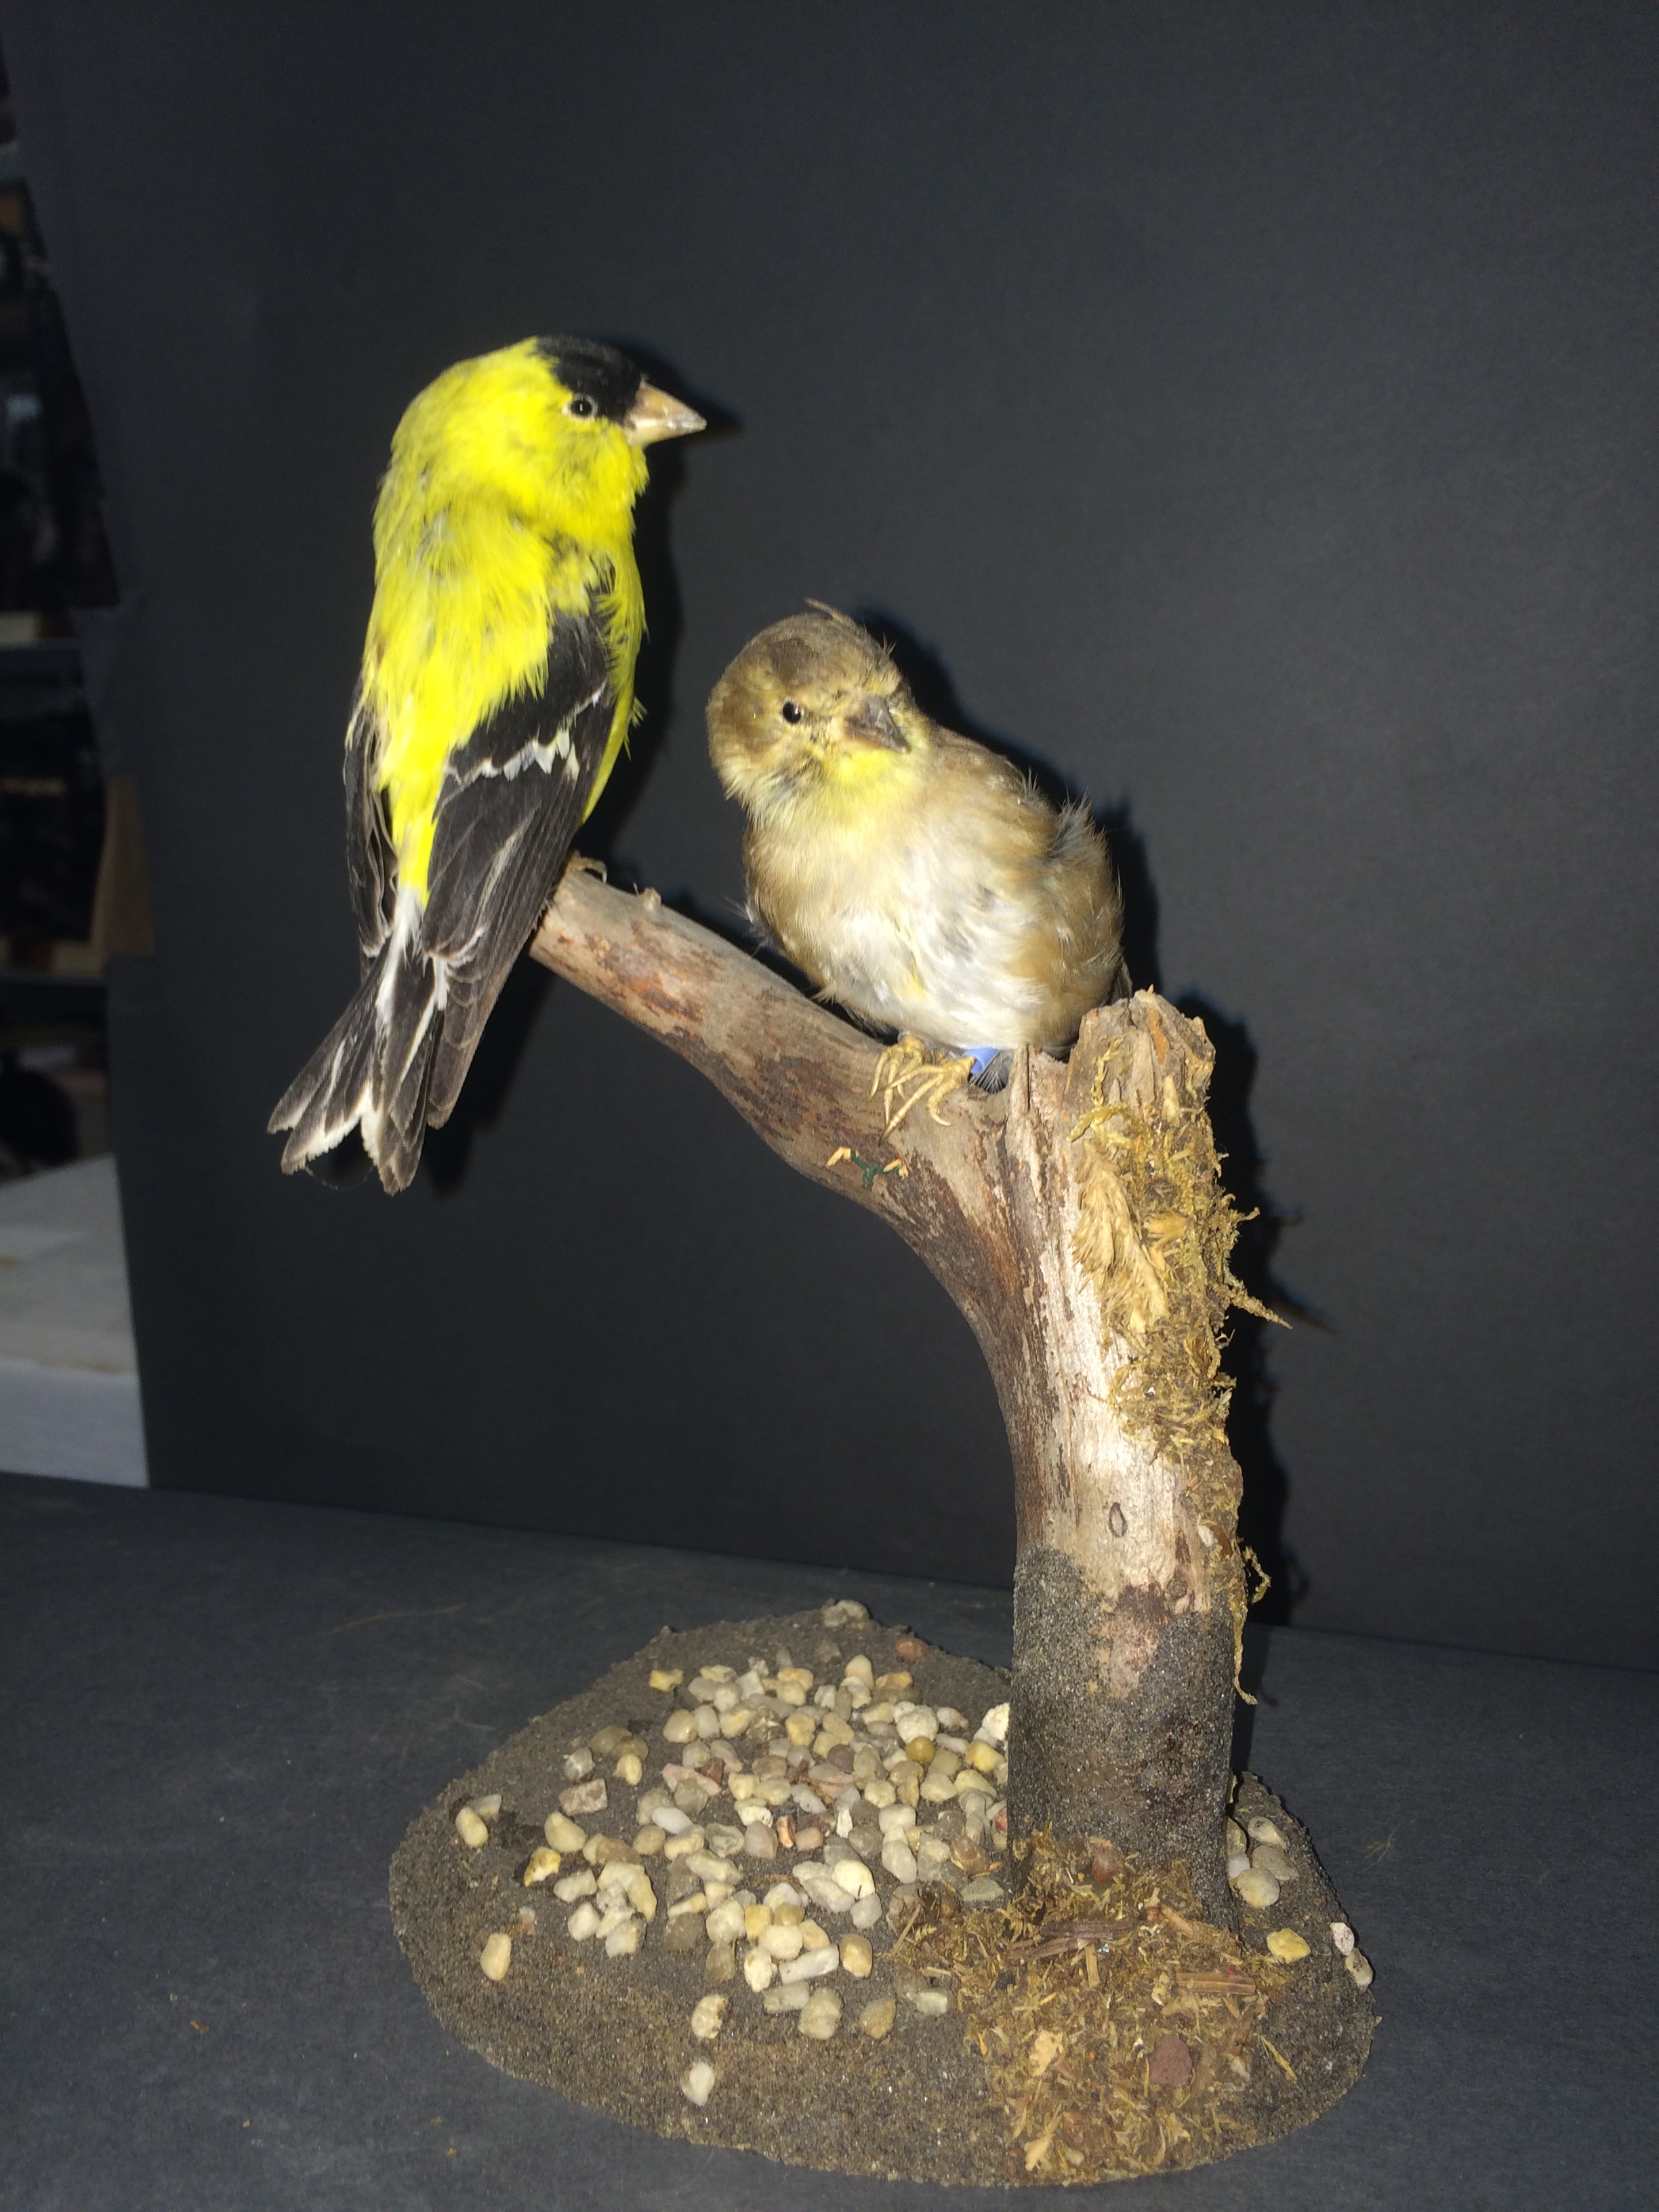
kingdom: Animalia
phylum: Chordata
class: Aves
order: Passeriformes
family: Fringillidae
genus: Spinus
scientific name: Spinus tristis
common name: American goldfinch
